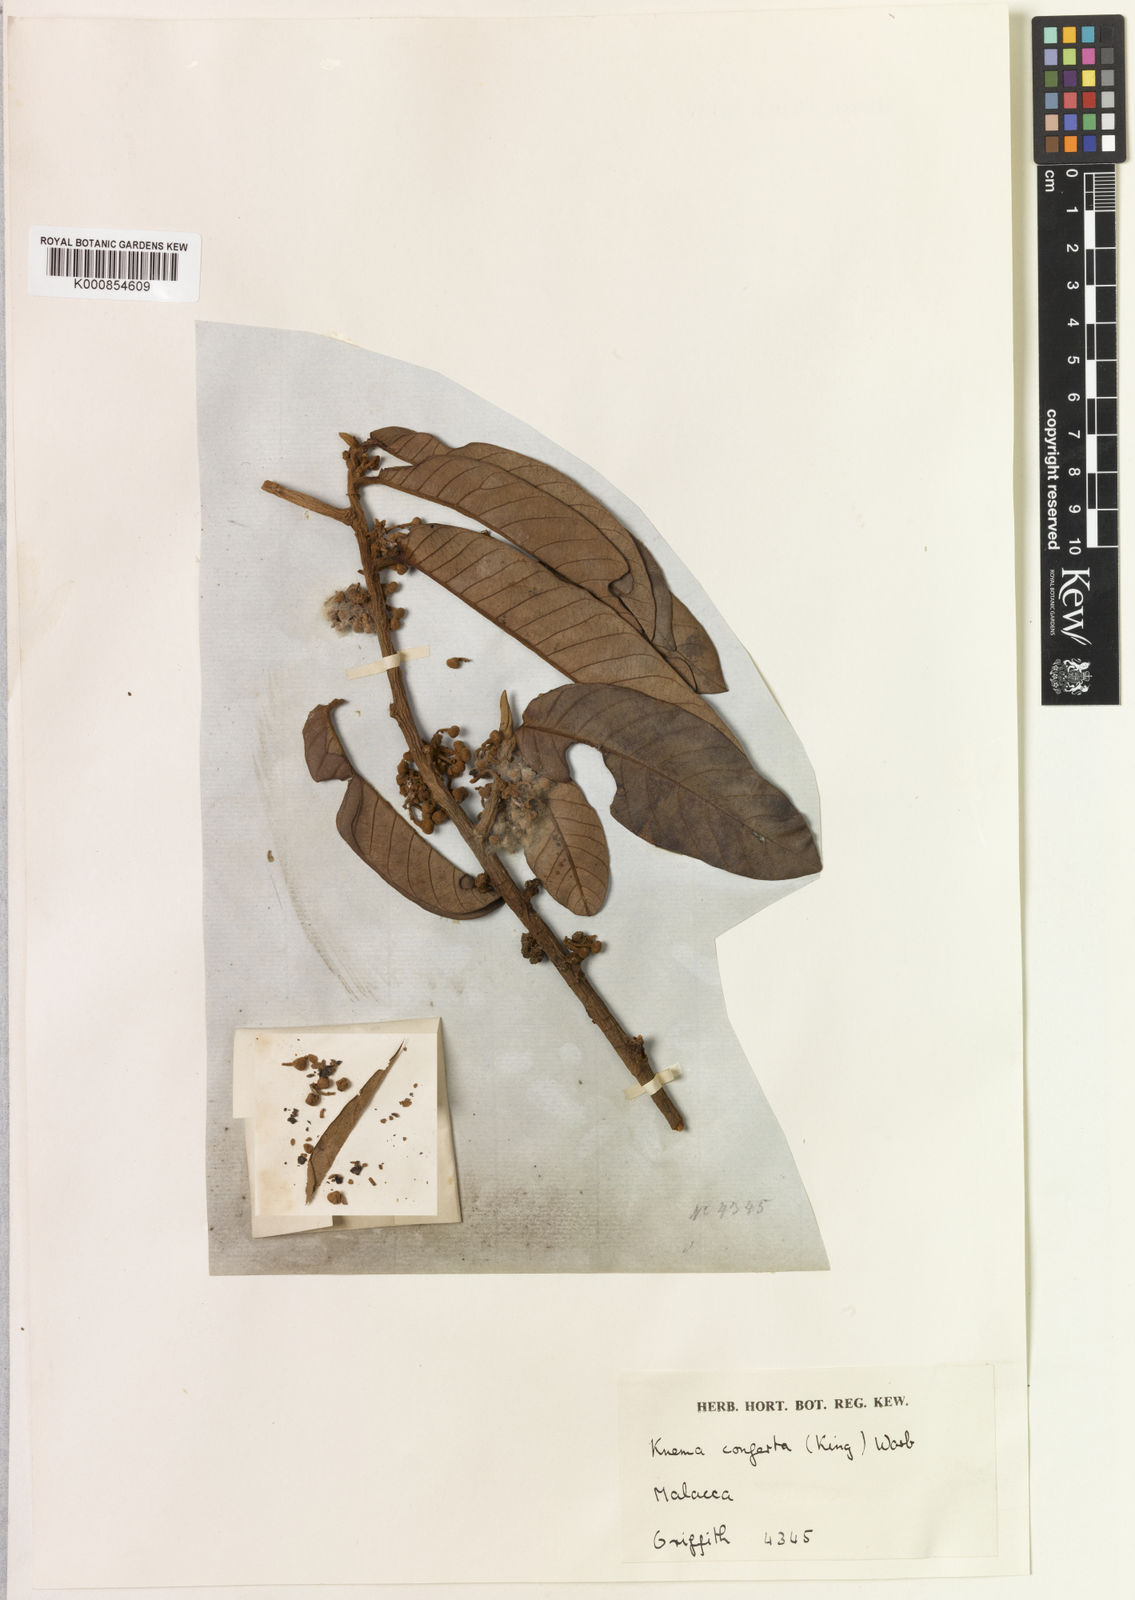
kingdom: Plantae
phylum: Tracheophyta
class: Magnoliopsida
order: Magnoliales
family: Myristicaceae
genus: Knema
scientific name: Knema conferta
